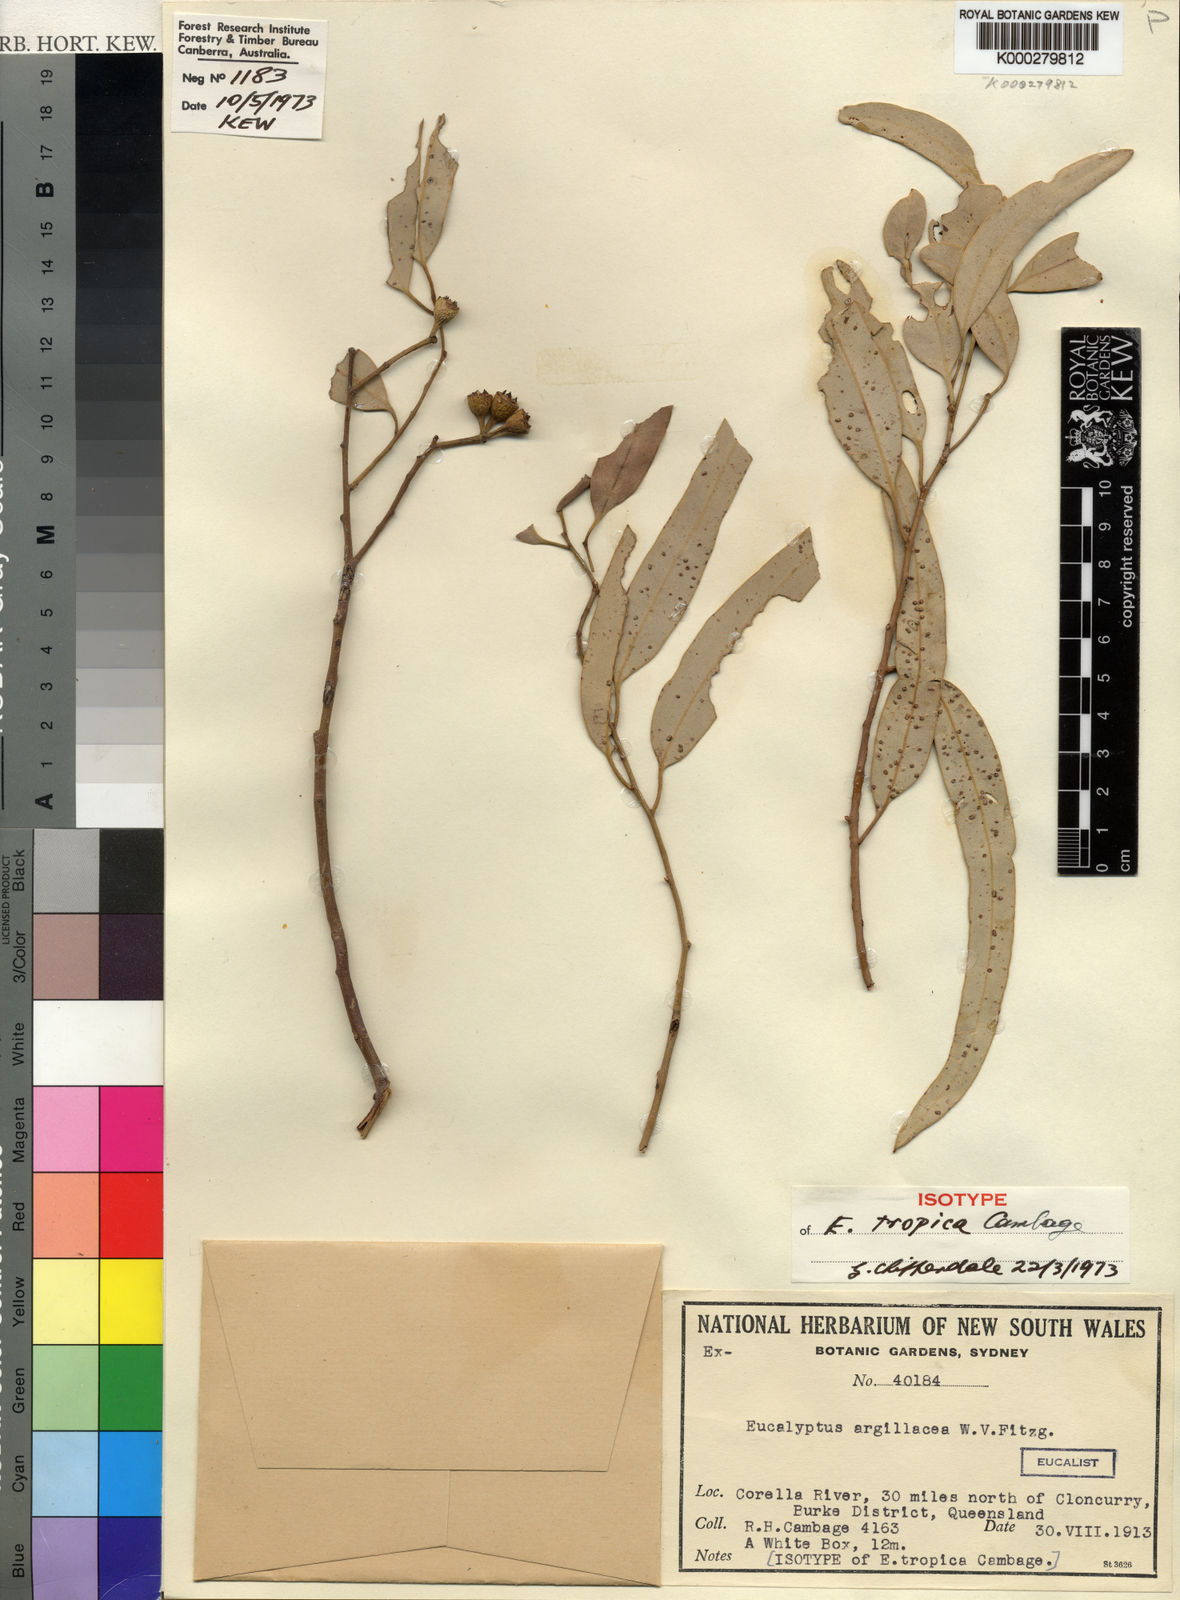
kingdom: Plantae
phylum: Tracheophyta
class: Magnoliopsida
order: Myrtales
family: Myrtaceae
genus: Eucalyptus
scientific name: Eucalyptus
